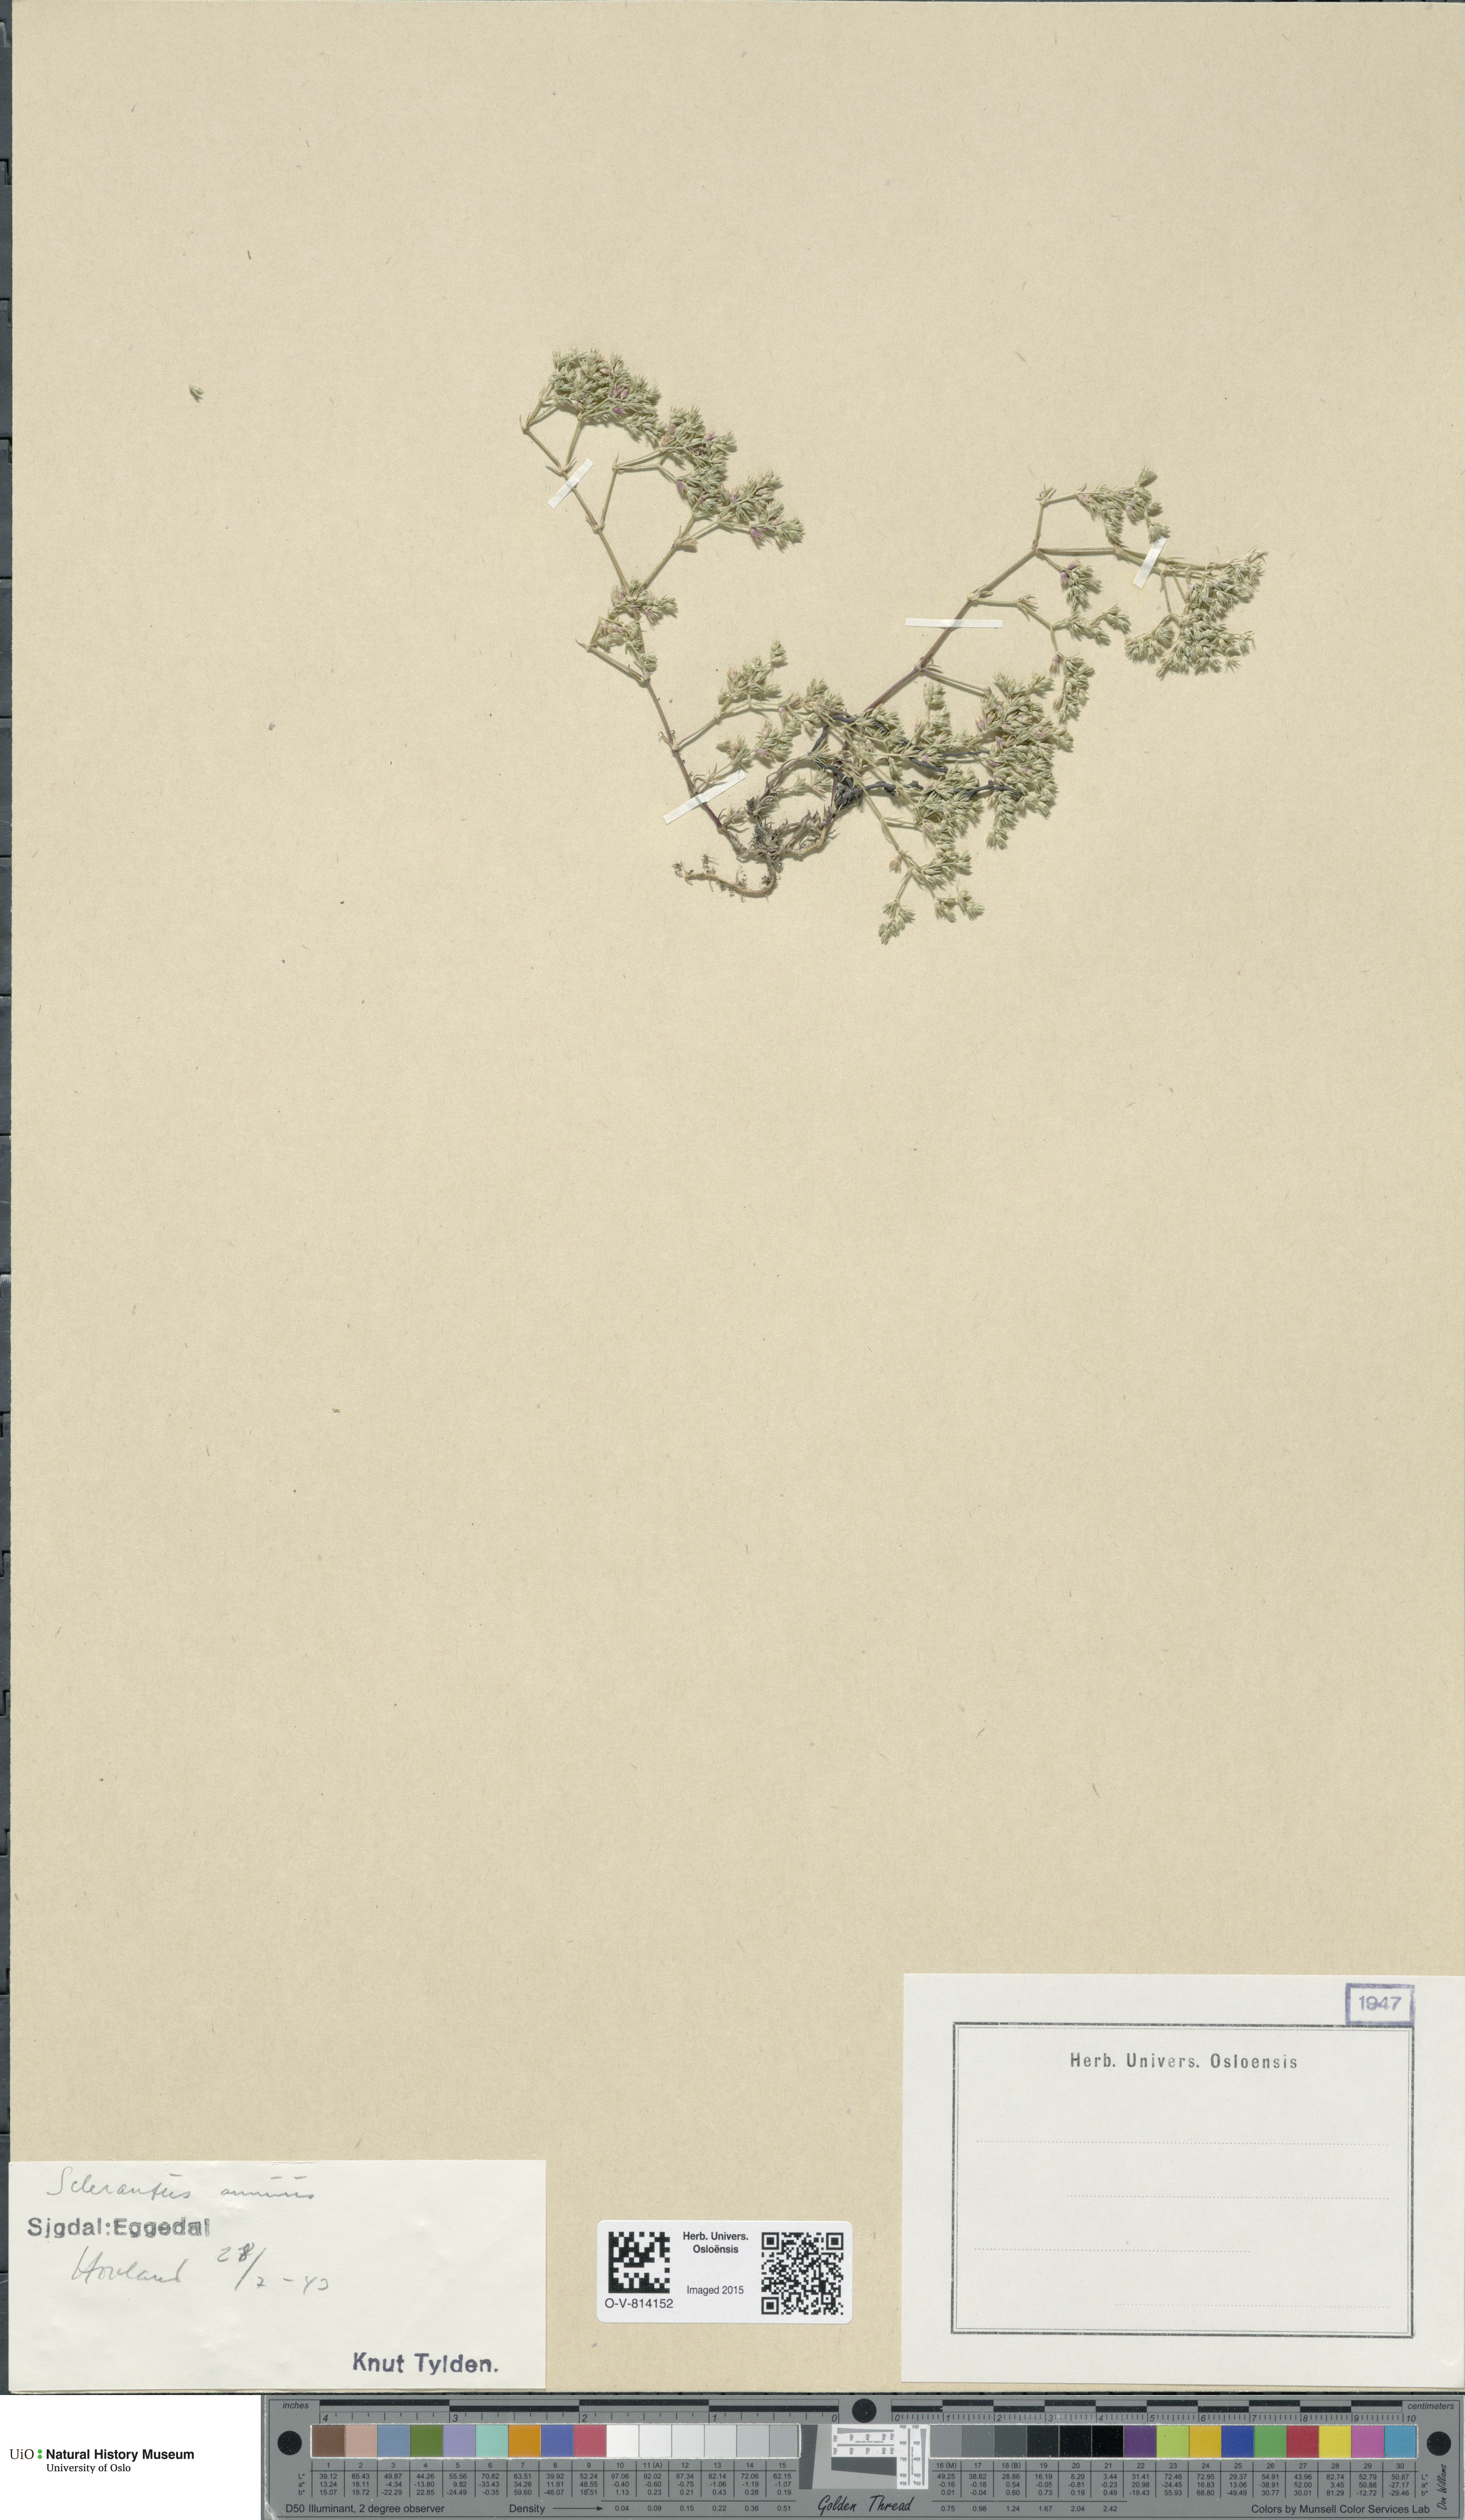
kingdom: Plantae
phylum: Tracheophyta
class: Magnoliopsida
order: Caryophyllales
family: Caryophyllaceae
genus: Scleranthus
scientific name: Scleranthus annuus
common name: Annual knawel
